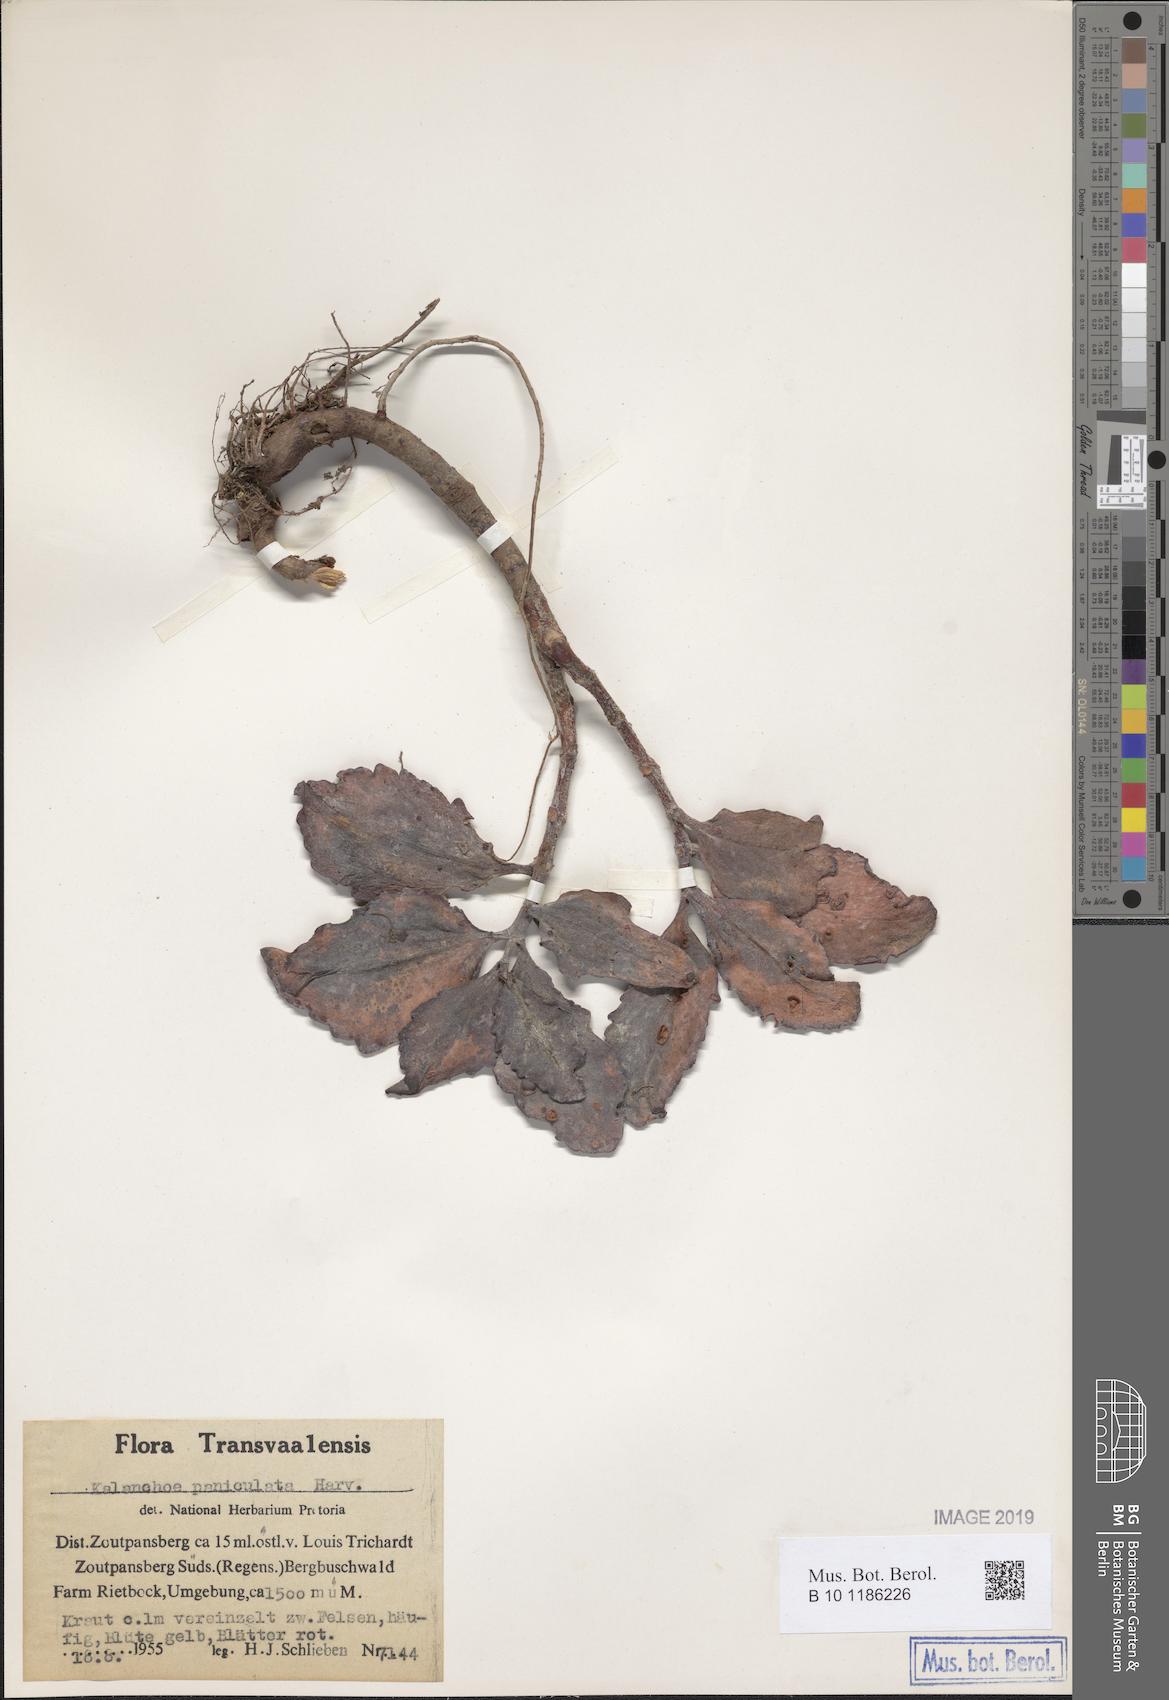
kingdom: Plantae
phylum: Tracheophyta
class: Magnoliopsida
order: Saxifragales
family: Crassulaceae
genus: Kalanchoe
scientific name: Kalanchoe paniculata
